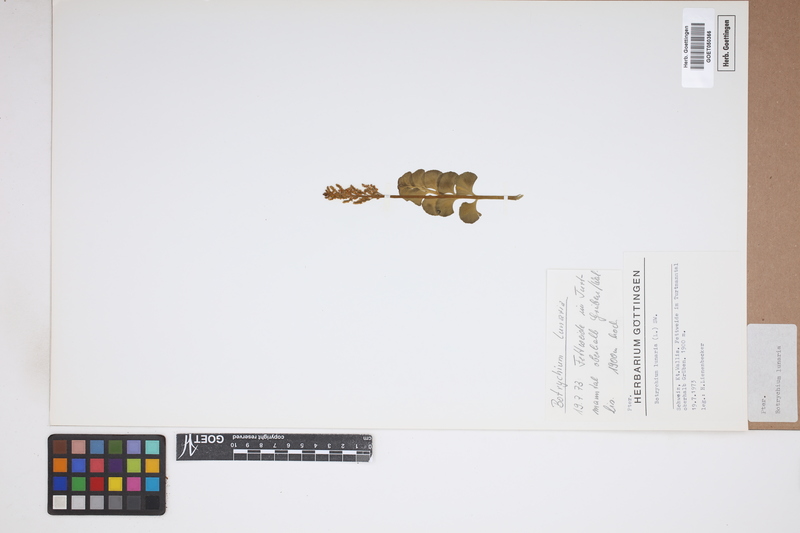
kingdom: Plantae
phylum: Tracheophyta
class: Polypodiopsida
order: Ophioglossales
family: Ophioglossaceae
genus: Botrychium
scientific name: Botrychium lunaria
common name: Moonwort
